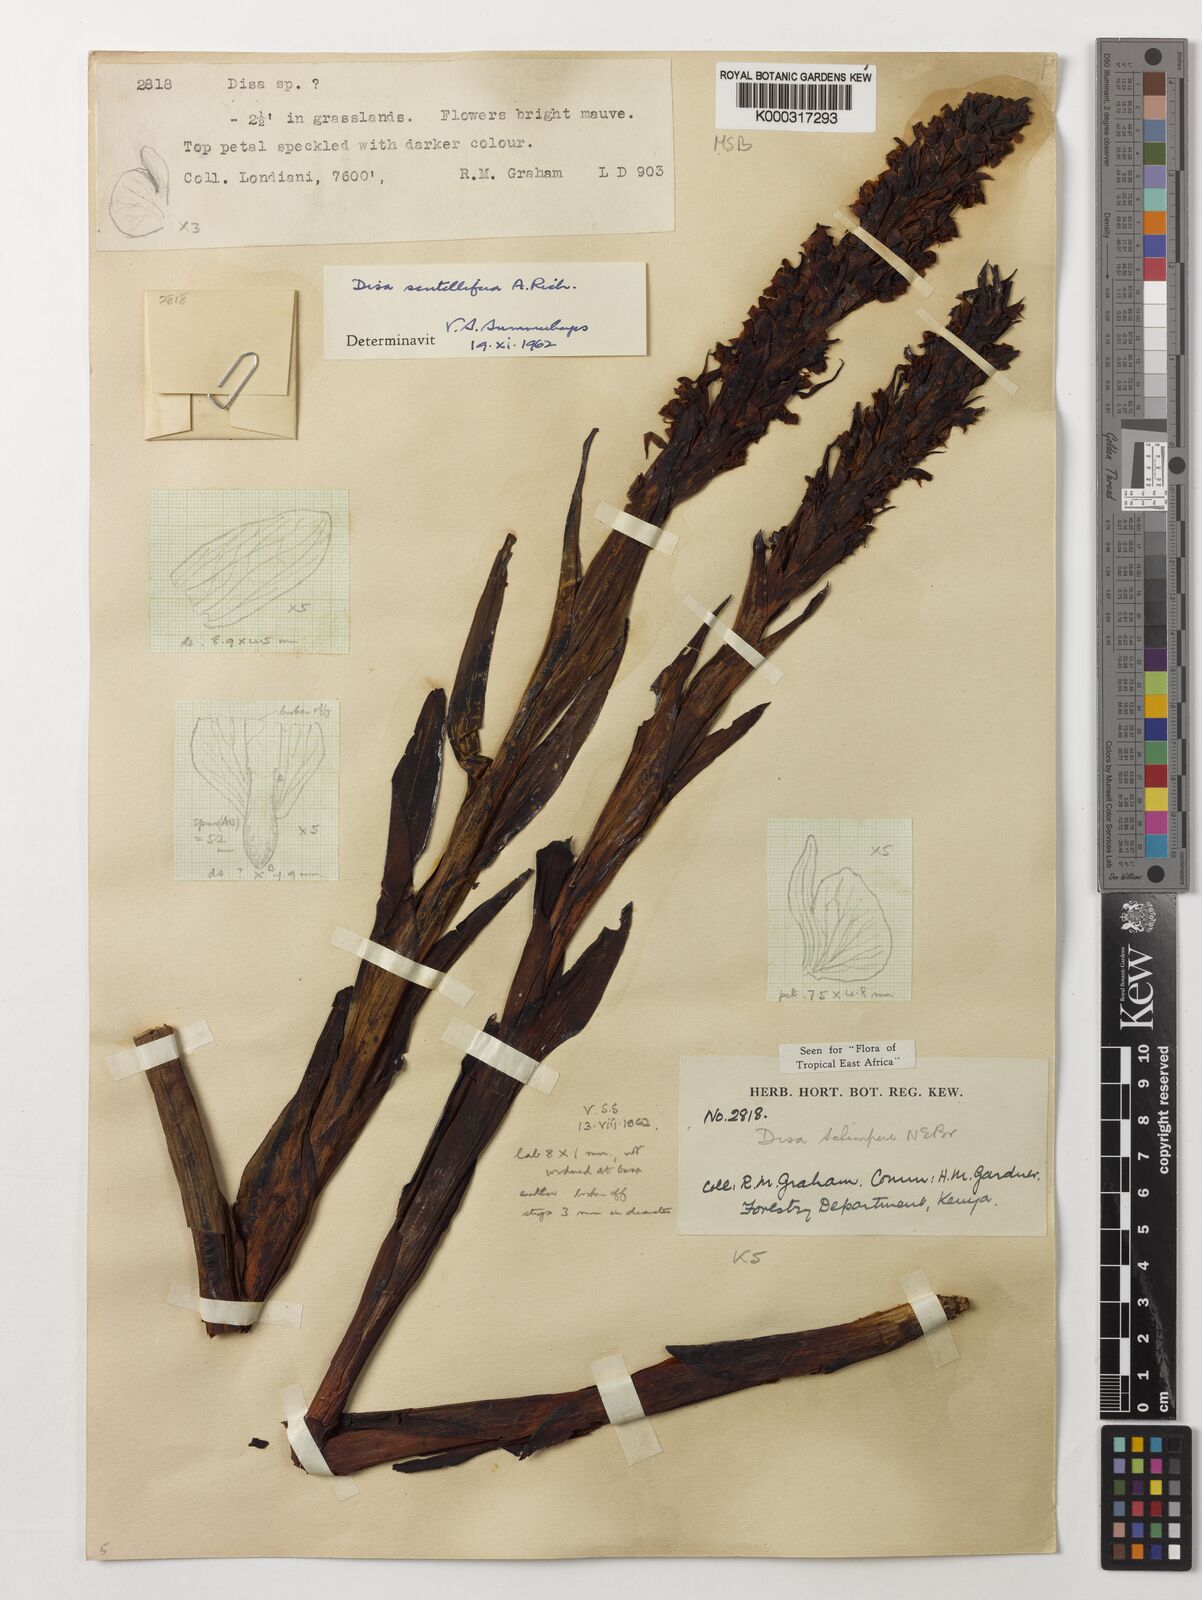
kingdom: Plantae
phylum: Tracheophyta
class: Liliopsida
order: Asparagales
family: Orchidaceae
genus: Disa
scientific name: Disa scutellifera
